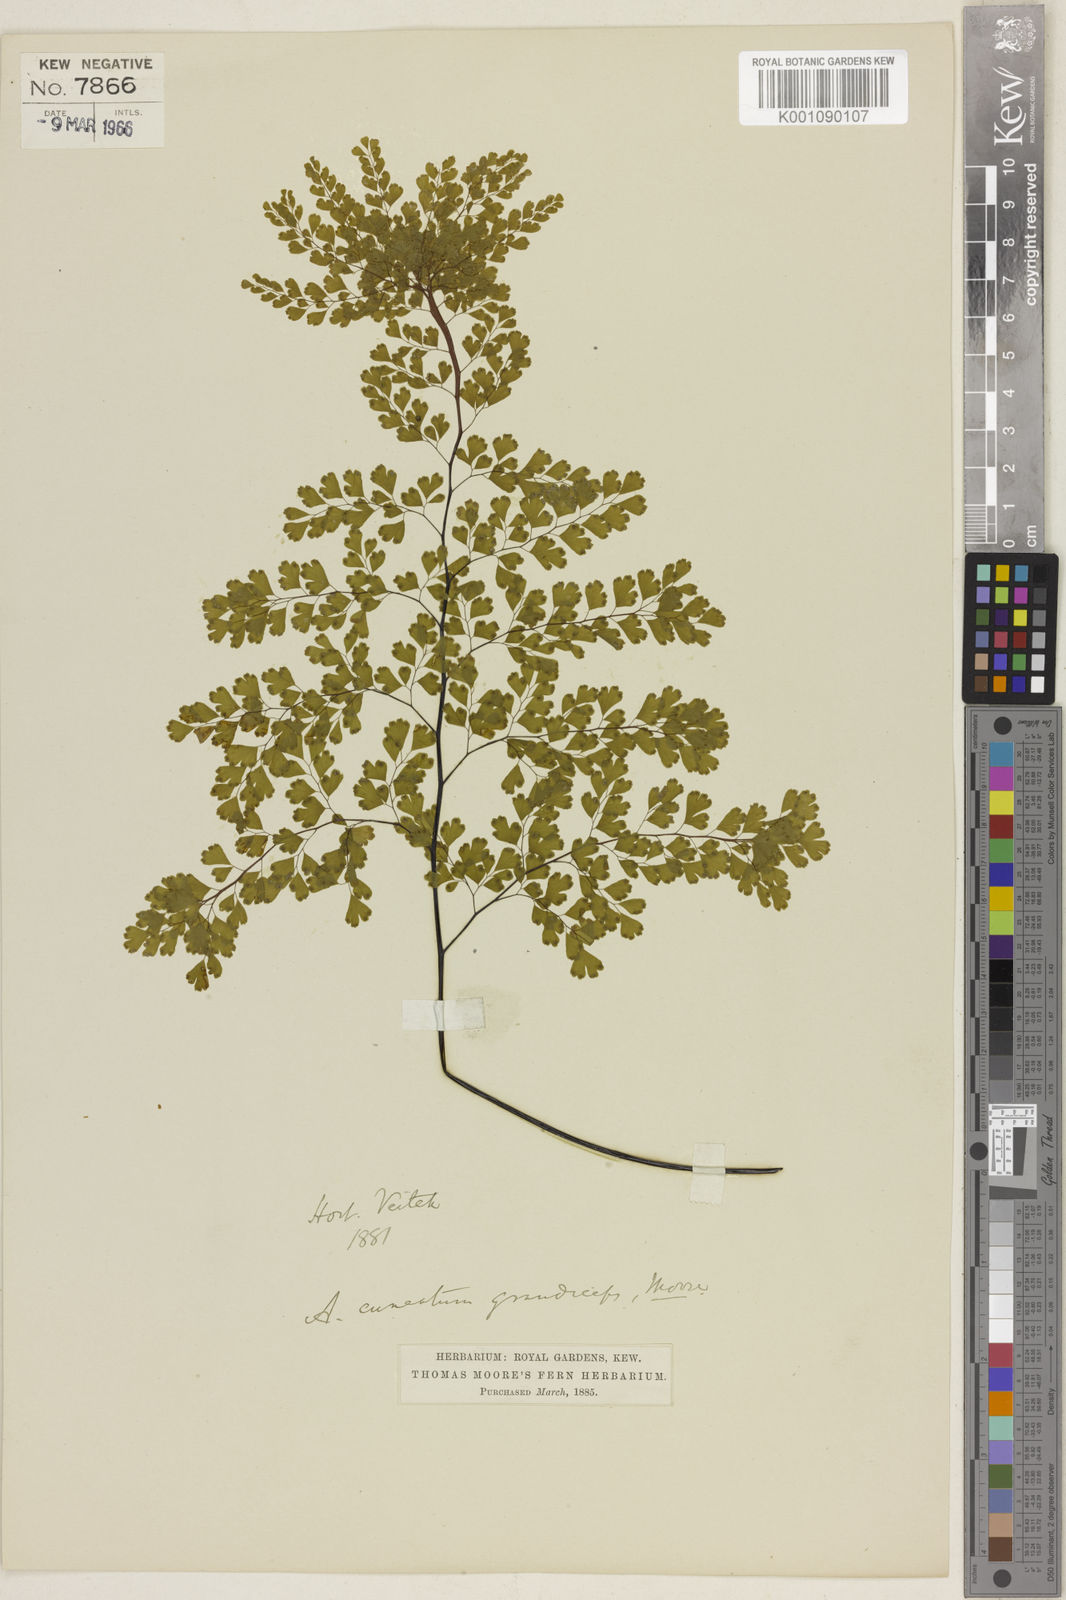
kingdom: Plantae
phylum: Tracheophyta
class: Polypodiopsida
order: Polypodiales
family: Pteridaceae
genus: Adiantum
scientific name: Adiantum raddianum
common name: Delta maidenhair fern
